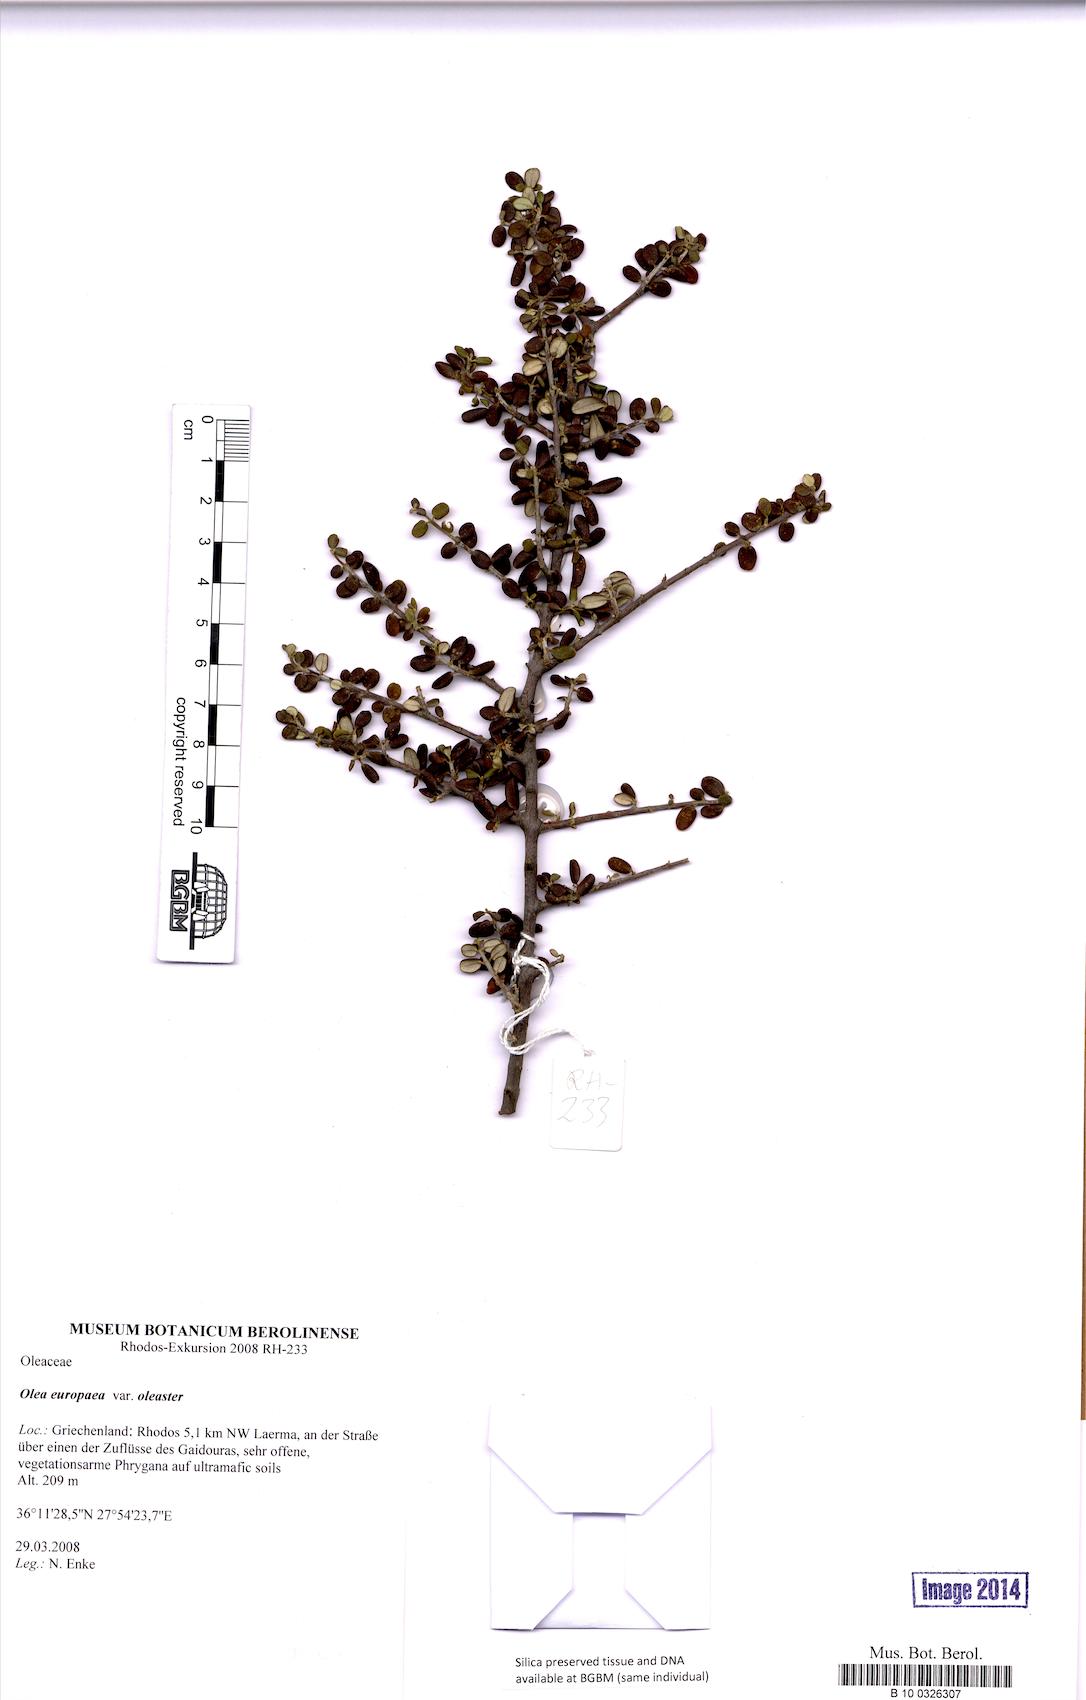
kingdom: Plantae
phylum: Tracheophyta
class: Magnoliopsida
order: Lamiales
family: Oleaceae
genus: Olea
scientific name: Olea europaea
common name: Olive
